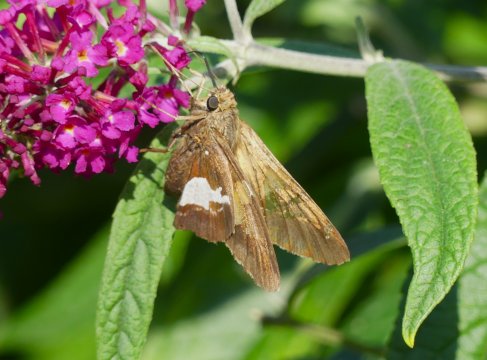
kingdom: Animalia
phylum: Arthropoda
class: Insecta
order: Lepidoptera
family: Hesperiidae
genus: Epargyreus
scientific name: Epargyreus clarus
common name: Silver-spotted Skipper
